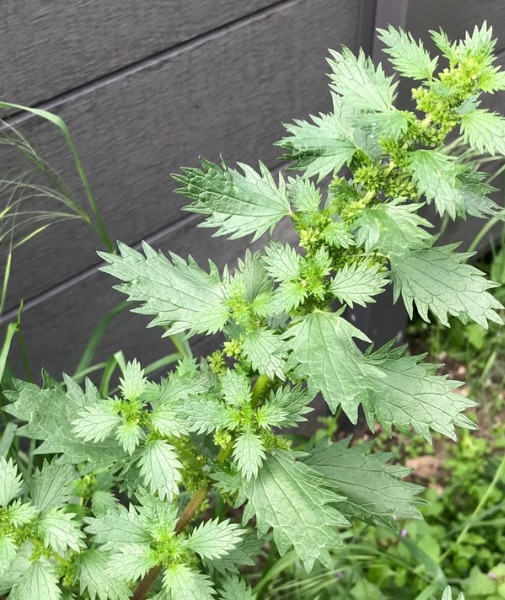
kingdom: Plantae
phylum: Tracheophyta
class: Magnoliopsida
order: Rosales
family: Urticaceae
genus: Urtica
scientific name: Urtica urens
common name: Liden nælde
